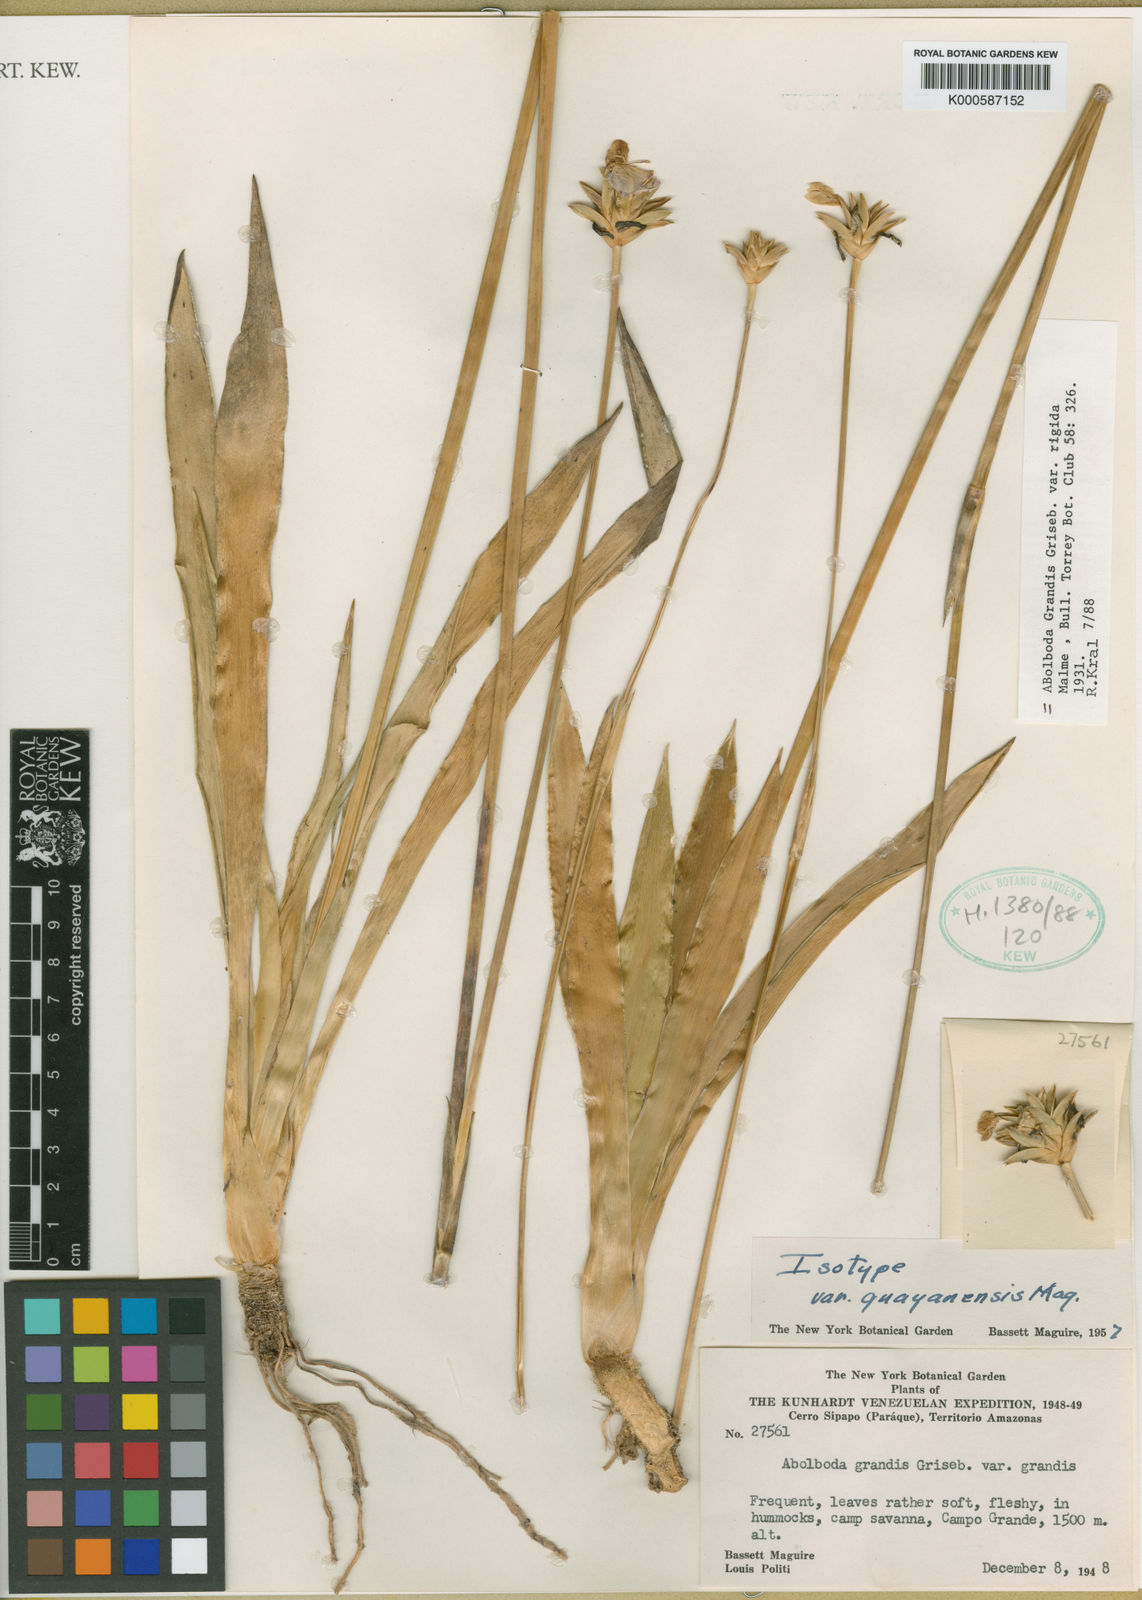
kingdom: Plantae
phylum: Tracheophyta
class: Liliopsida
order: Poales
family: Xyridaceae
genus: Abolboda
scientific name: Abolboda grandis
